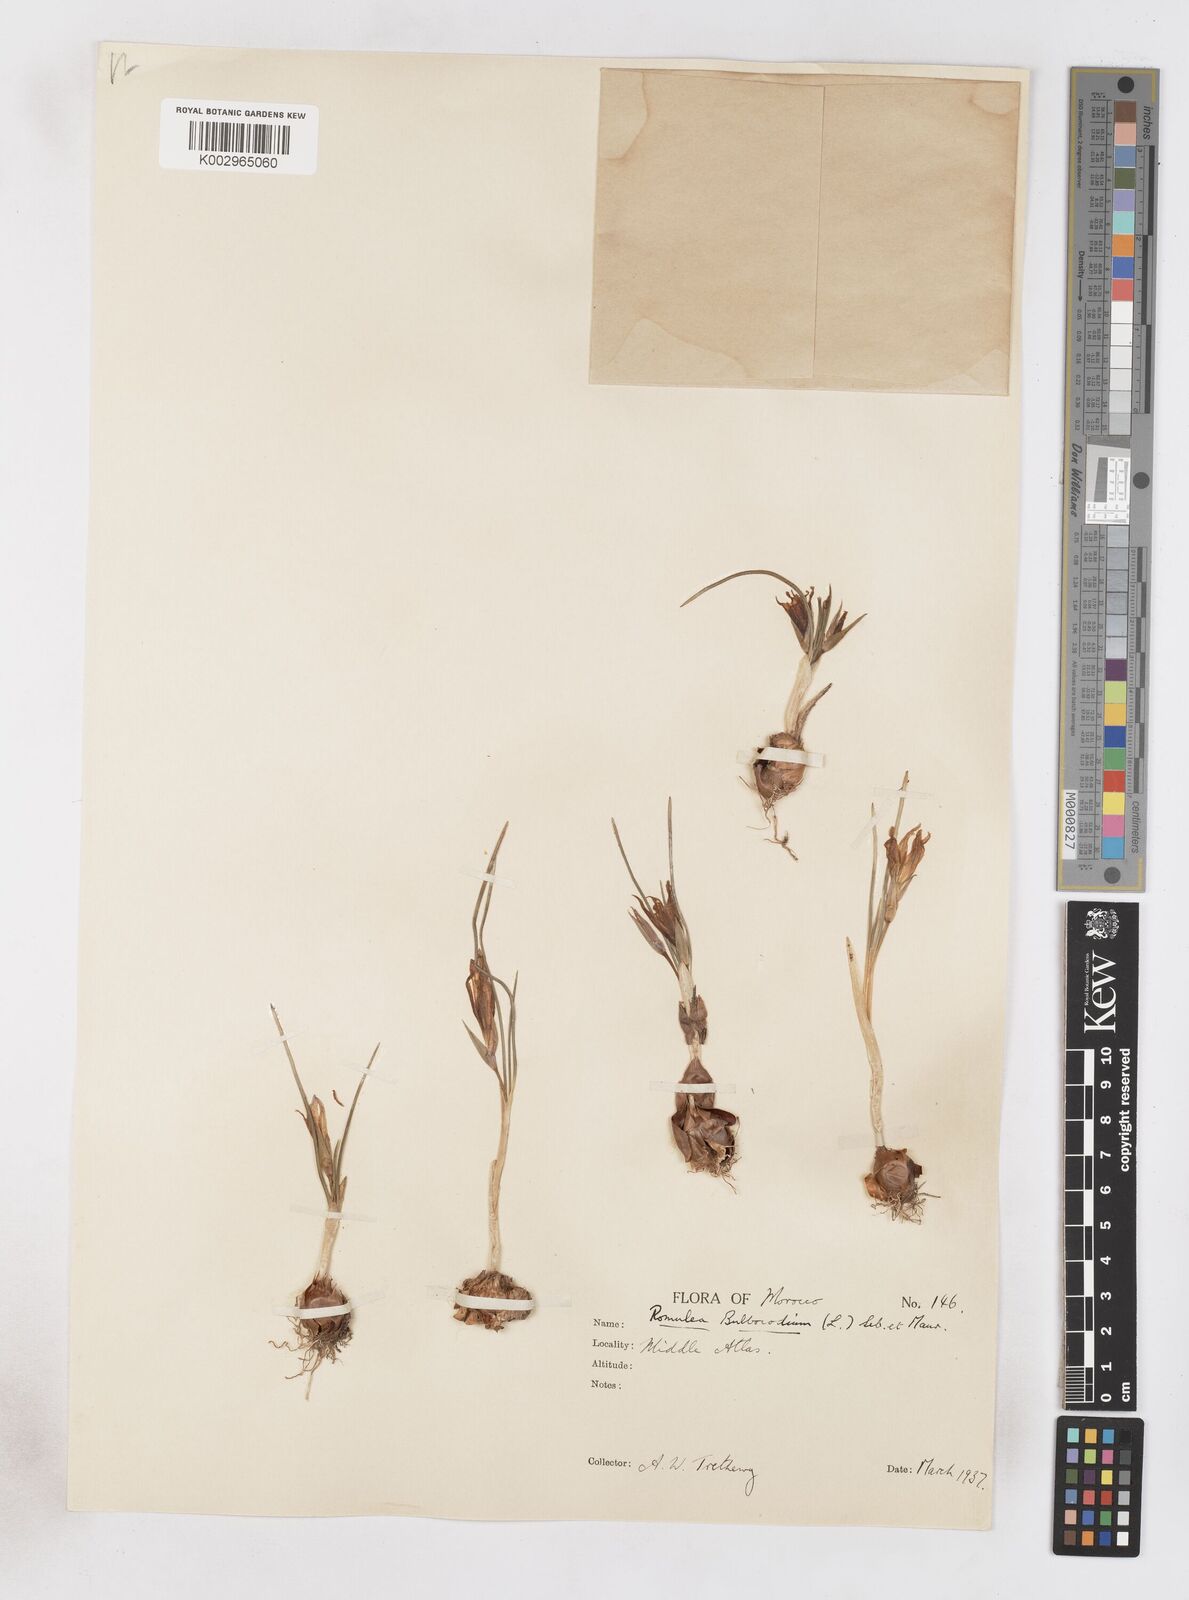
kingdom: Plantae
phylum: Tracheophyta
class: Liliopsida
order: Asparagales
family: Iridaceae
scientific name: Iridaceae
